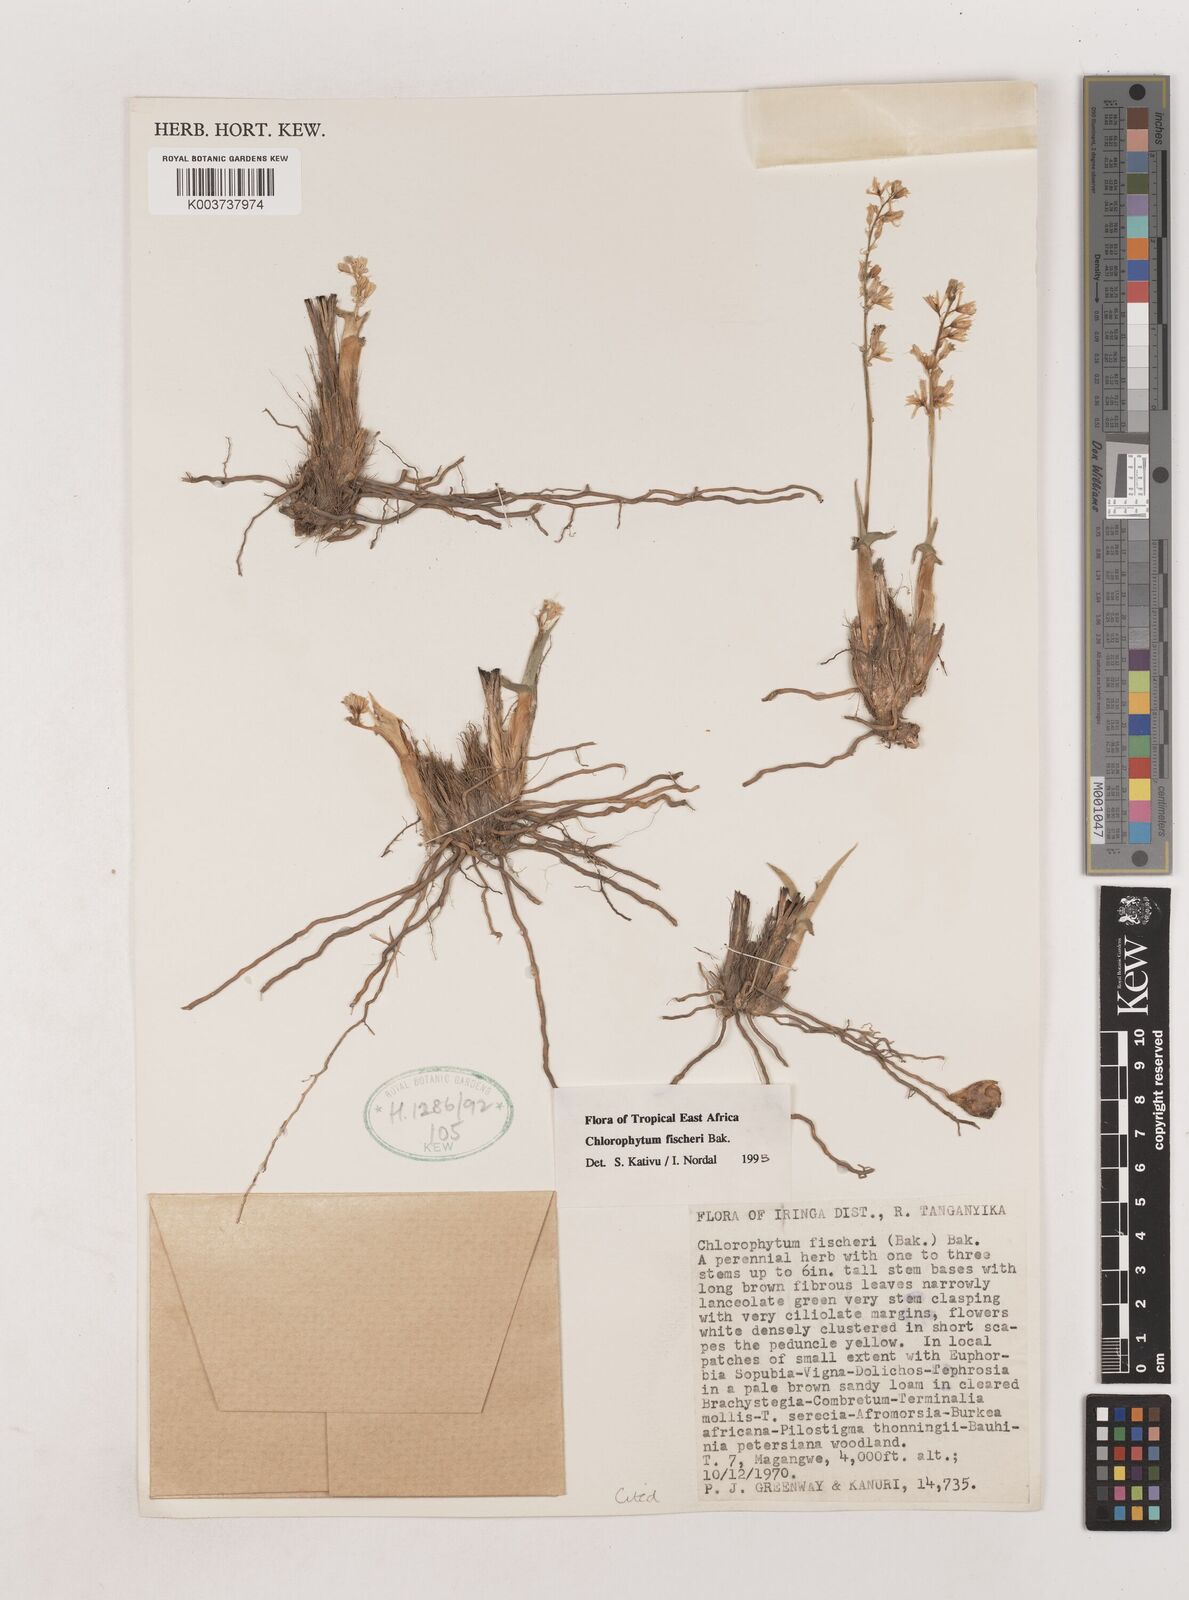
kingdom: Plantae
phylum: Tracheophyta
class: Liliopsida
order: Asparagales
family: Asparagaceae
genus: Chlorophytum
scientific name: Chlorophytum fischeri
